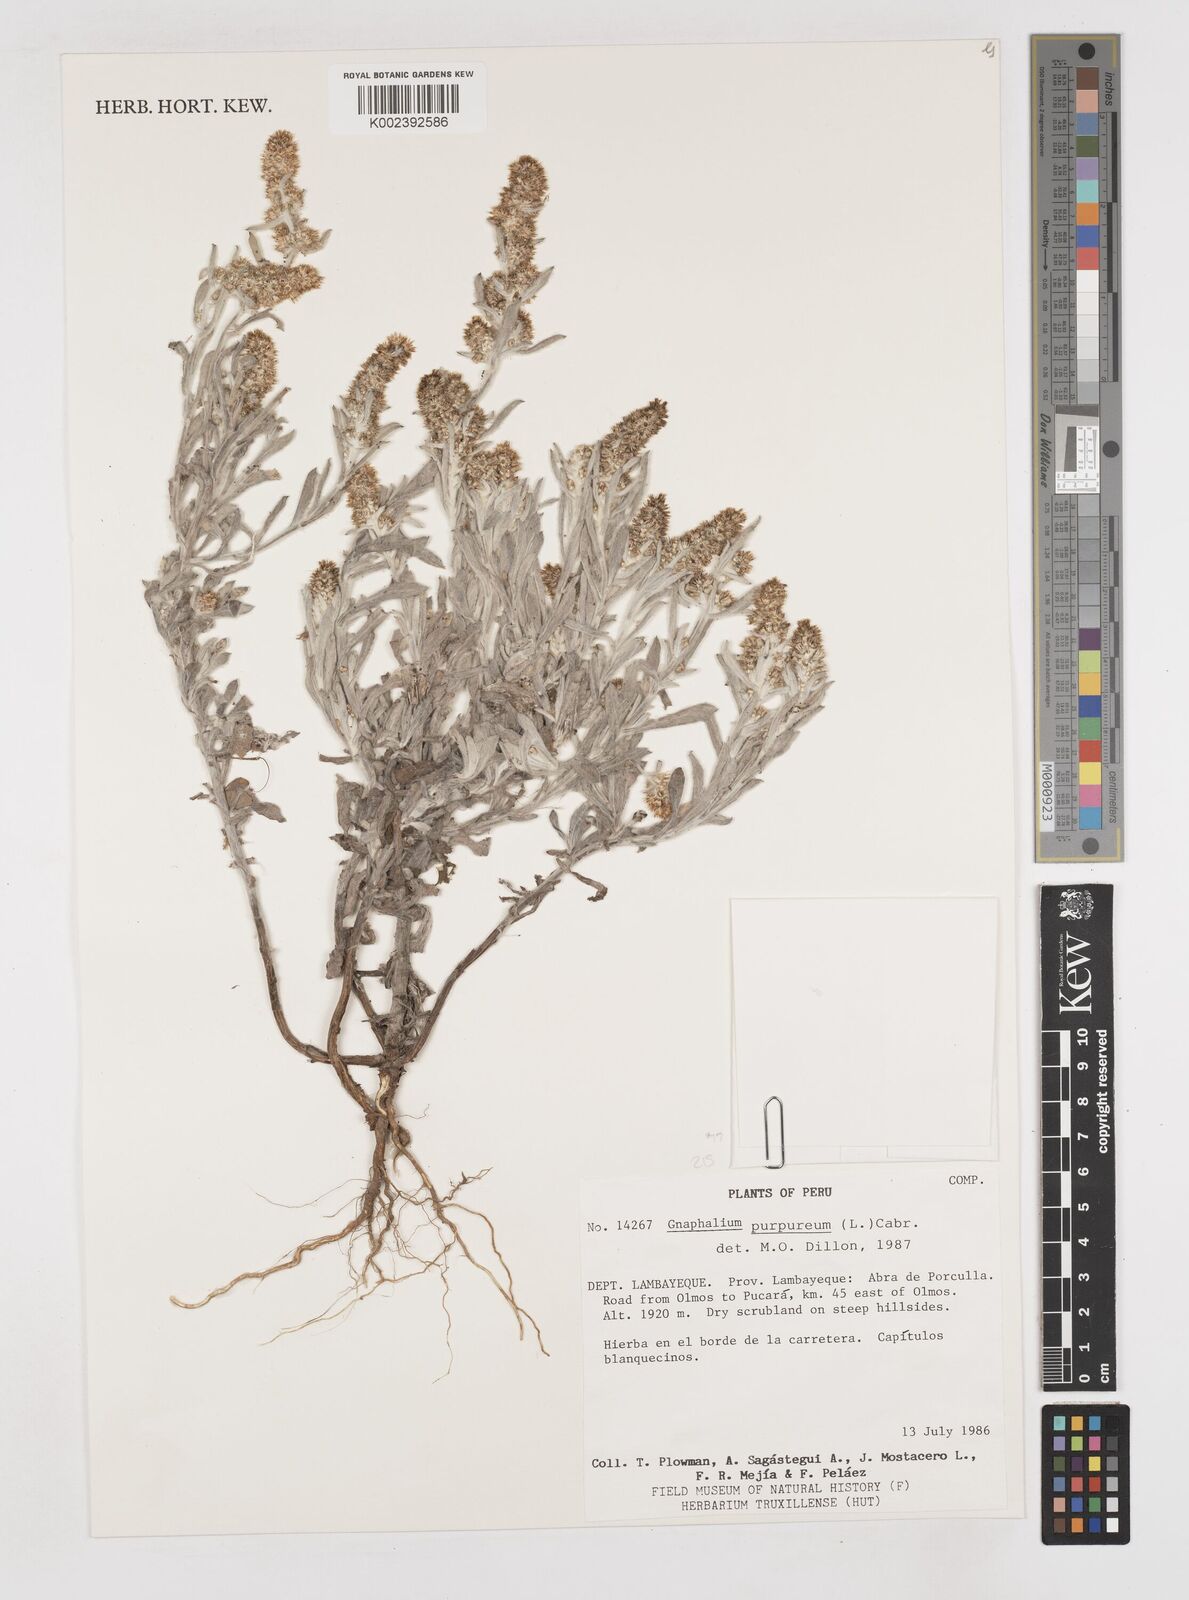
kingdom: Plantae
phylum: Tracheophyta
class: Magnoliopsida
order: Asterales
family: Asteraceae
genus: Pseudognaphalium
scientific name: Pseudognaphalium purpurascens
